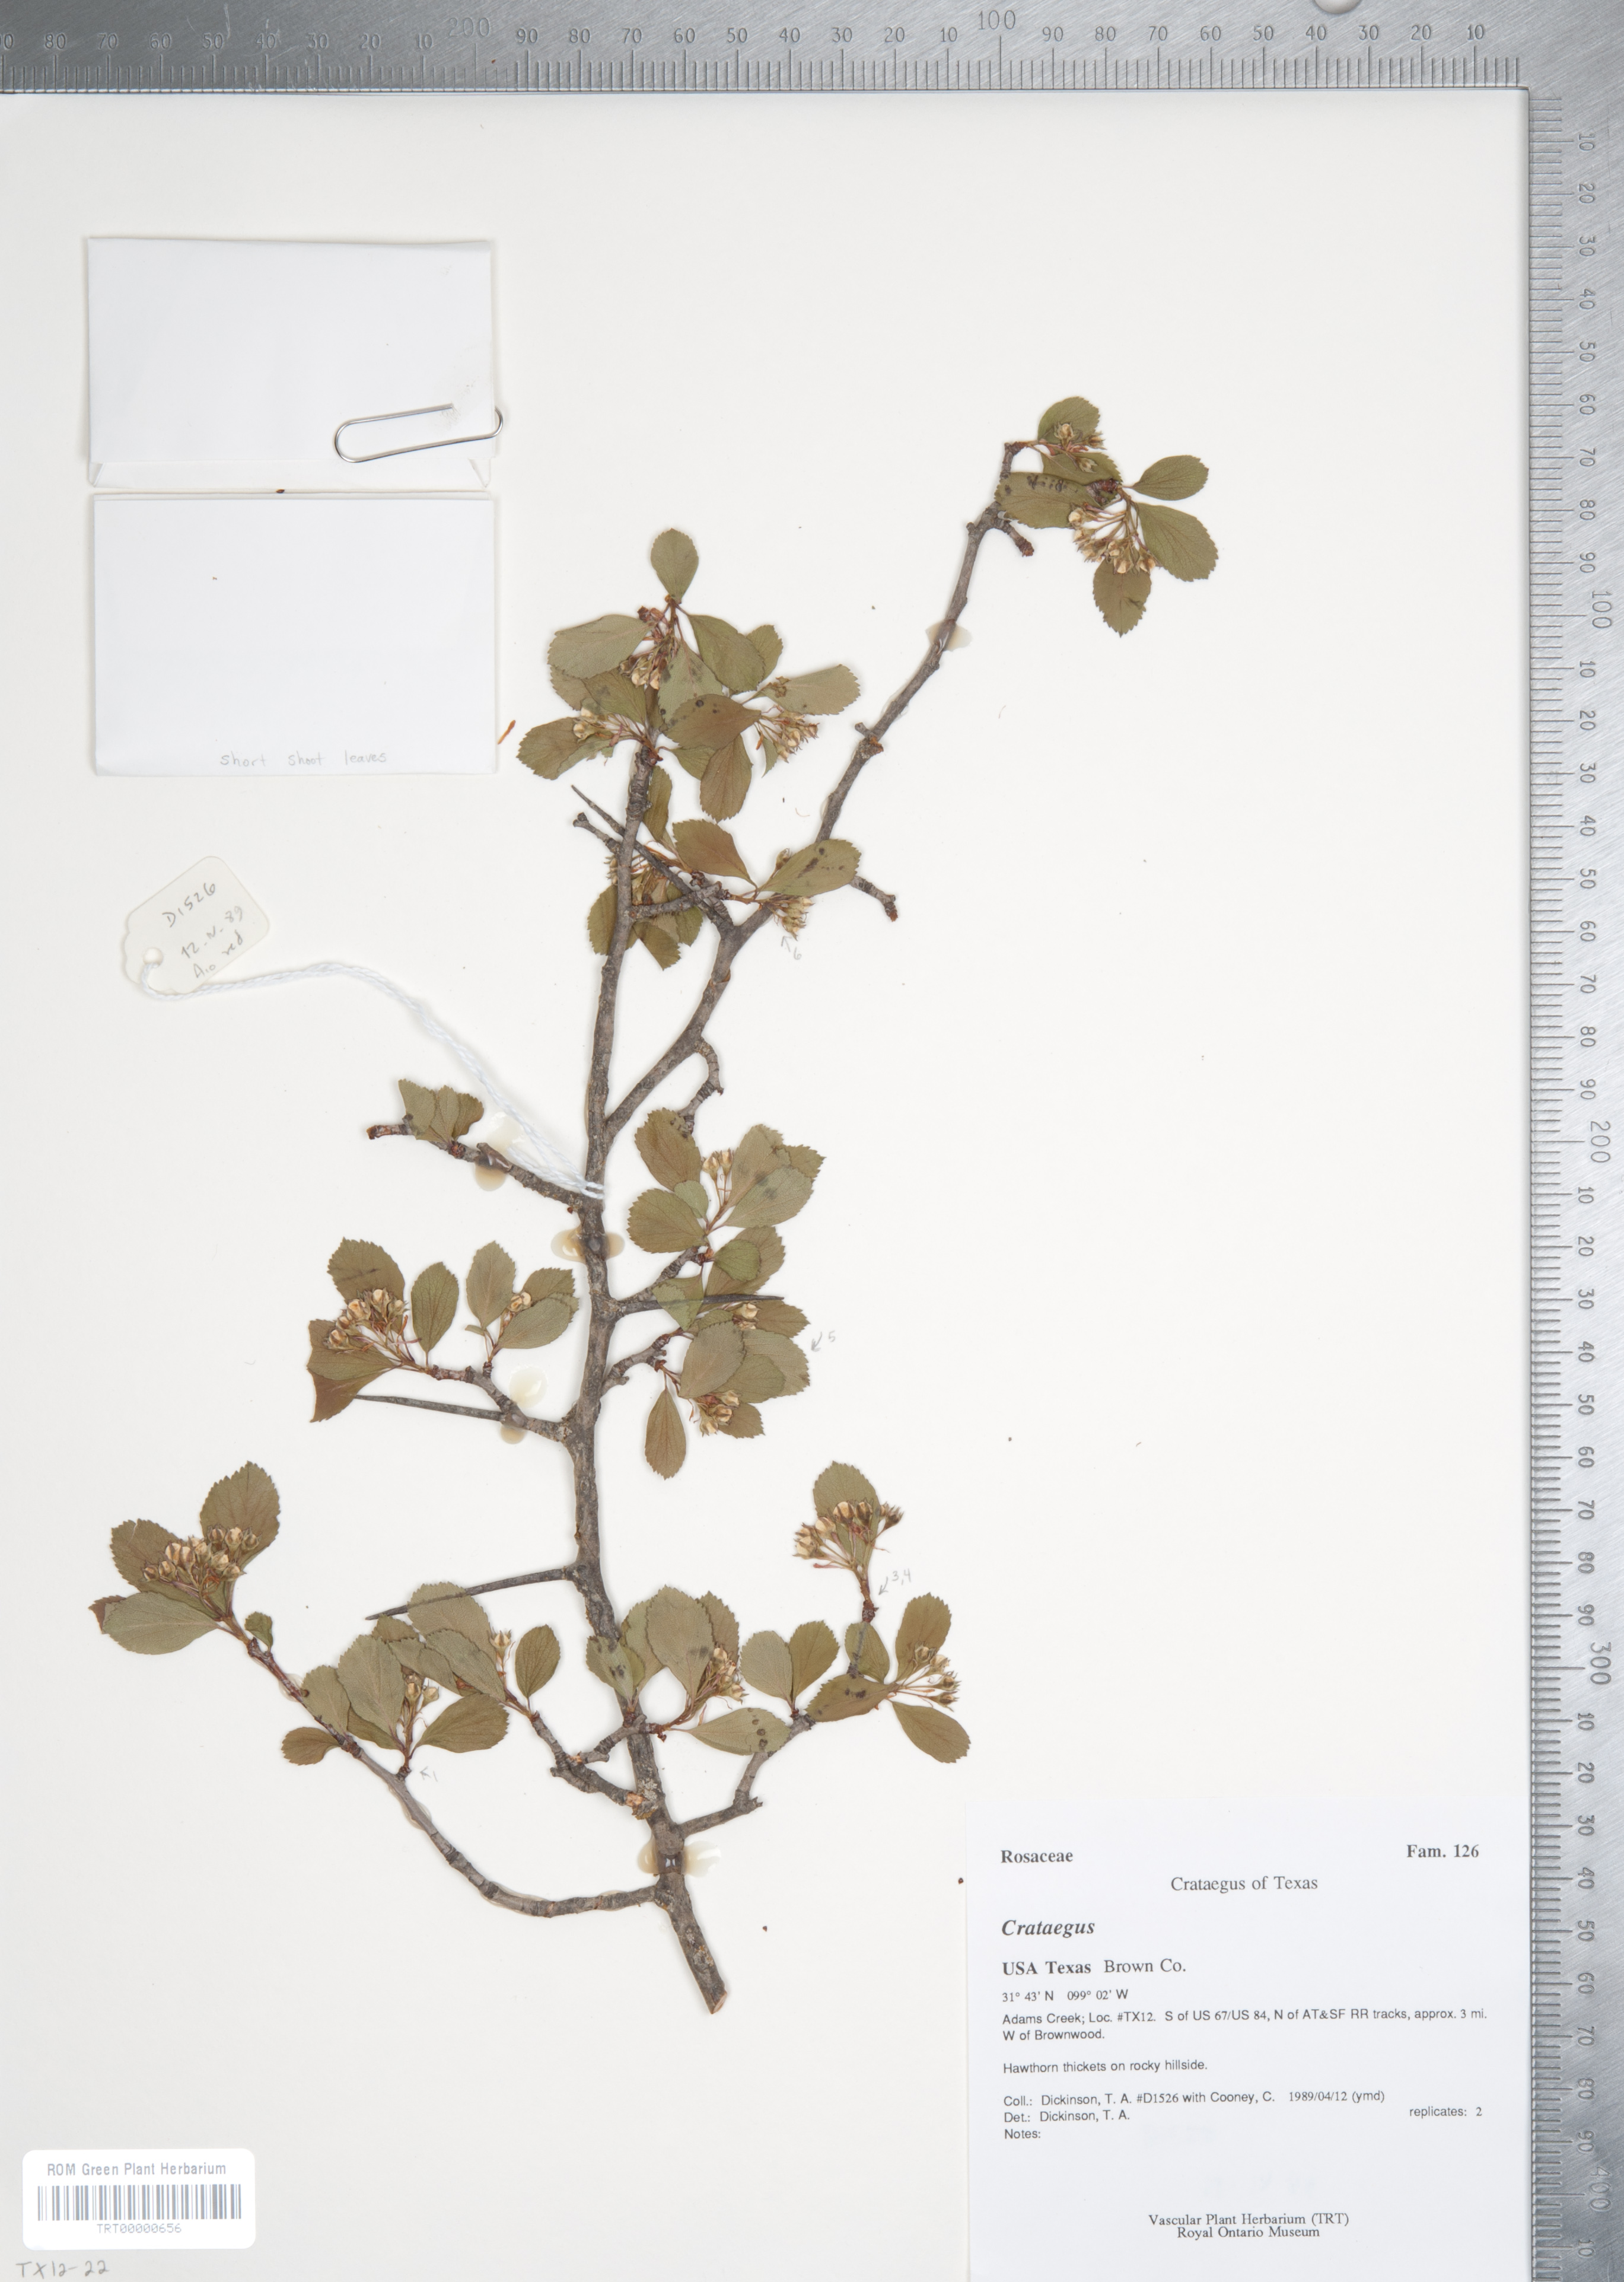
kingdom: Plantae
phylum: Tracheophyta
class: Magnoliopsida
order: Rosales
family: Rosaceae
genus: Crataegus
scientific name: Crataegus crus-galli
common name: Cockspurthorn
